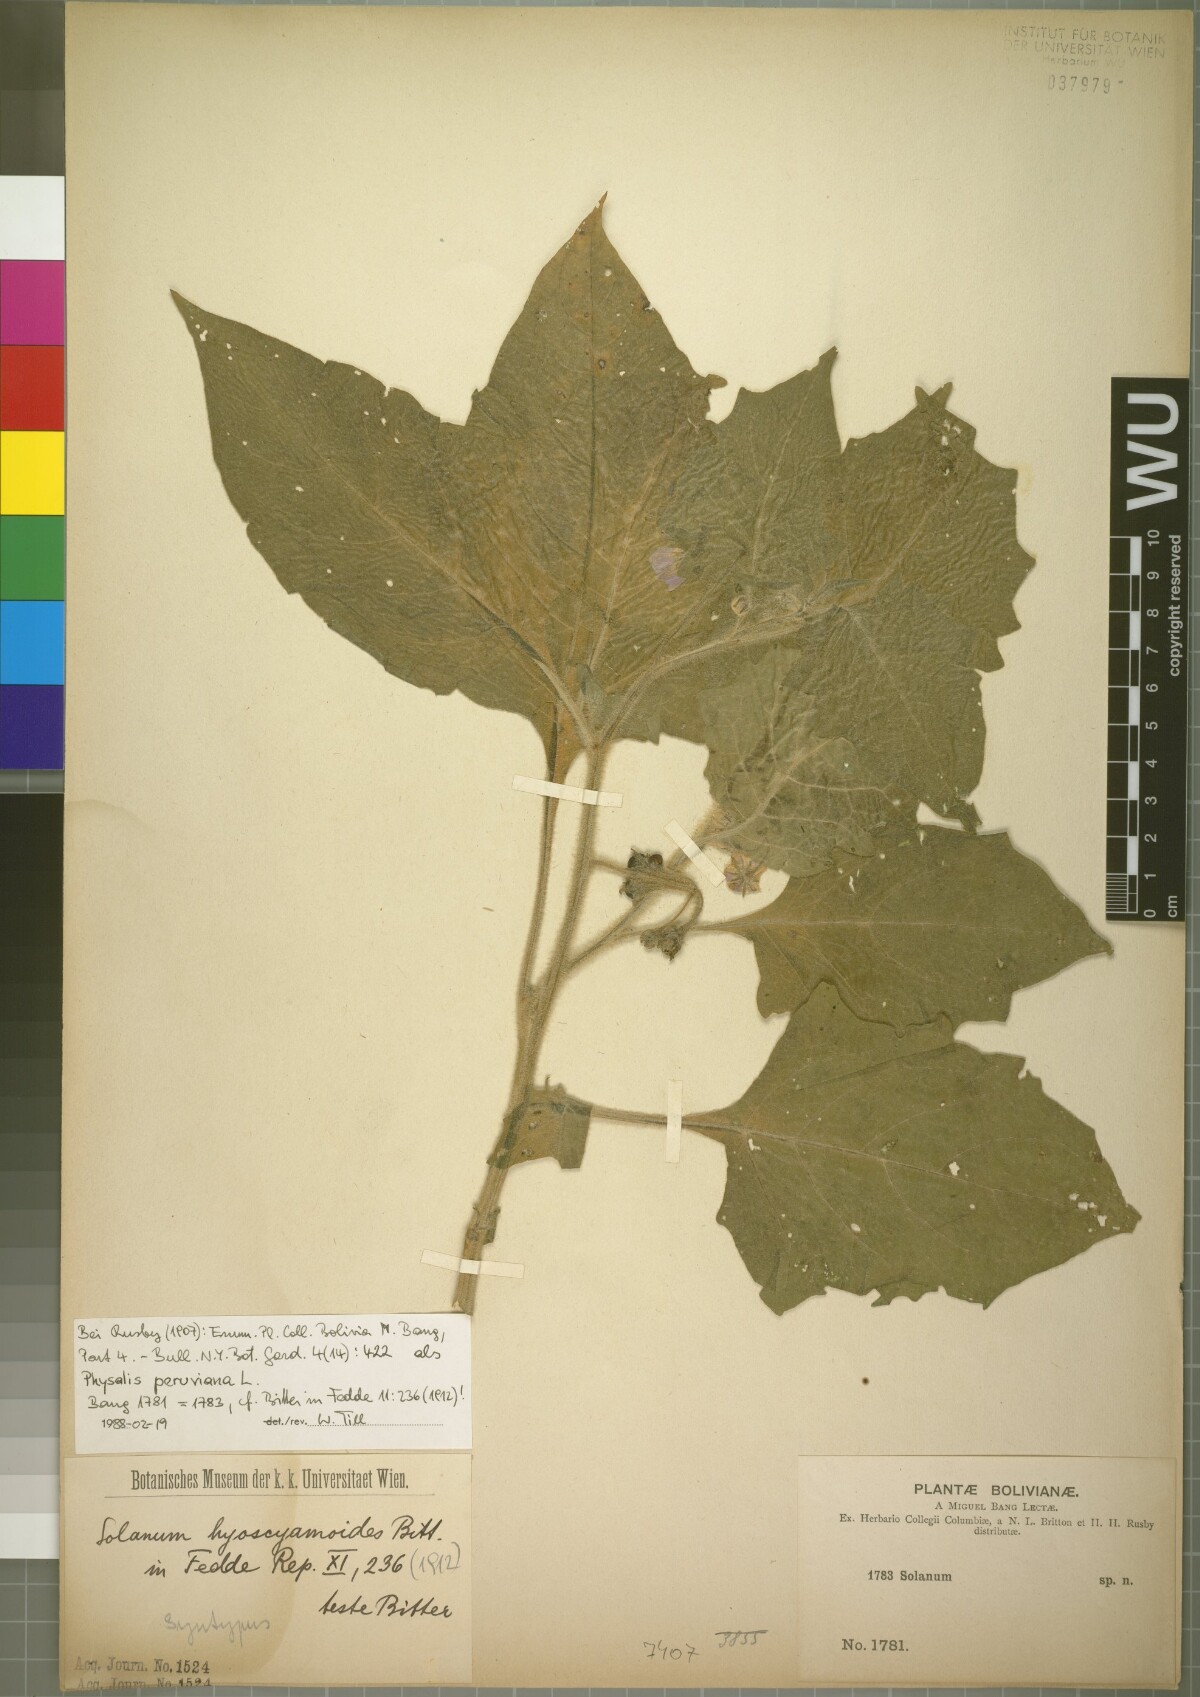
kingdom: Plantae
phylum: Tracheophyta
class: Magnoliopsida
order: Solanales
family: Solanaceae
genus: Solanum
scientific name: Solanum sinuatiexcisum
